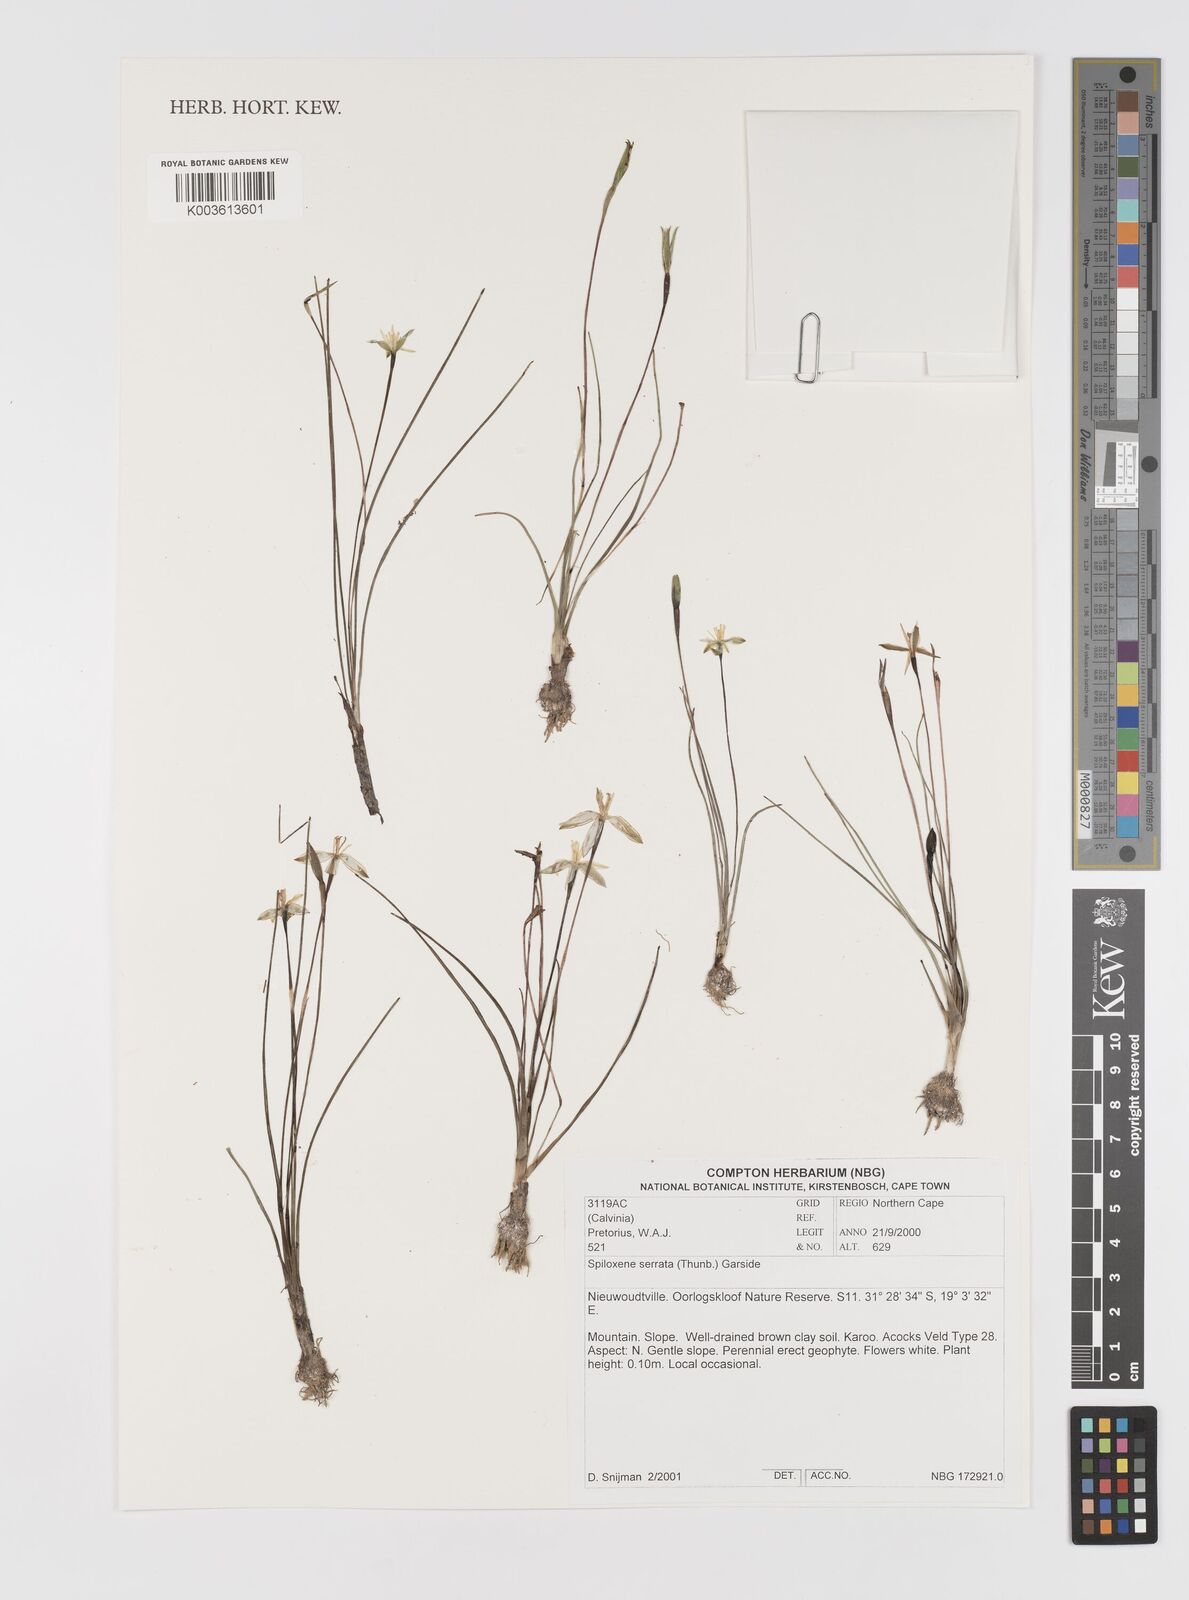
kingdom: Plantae
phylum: Tracheophyta
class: Liliopsida
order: Asparagales
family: Hypoxidaceae
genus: Pauridia
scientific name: Pauridia serrata
